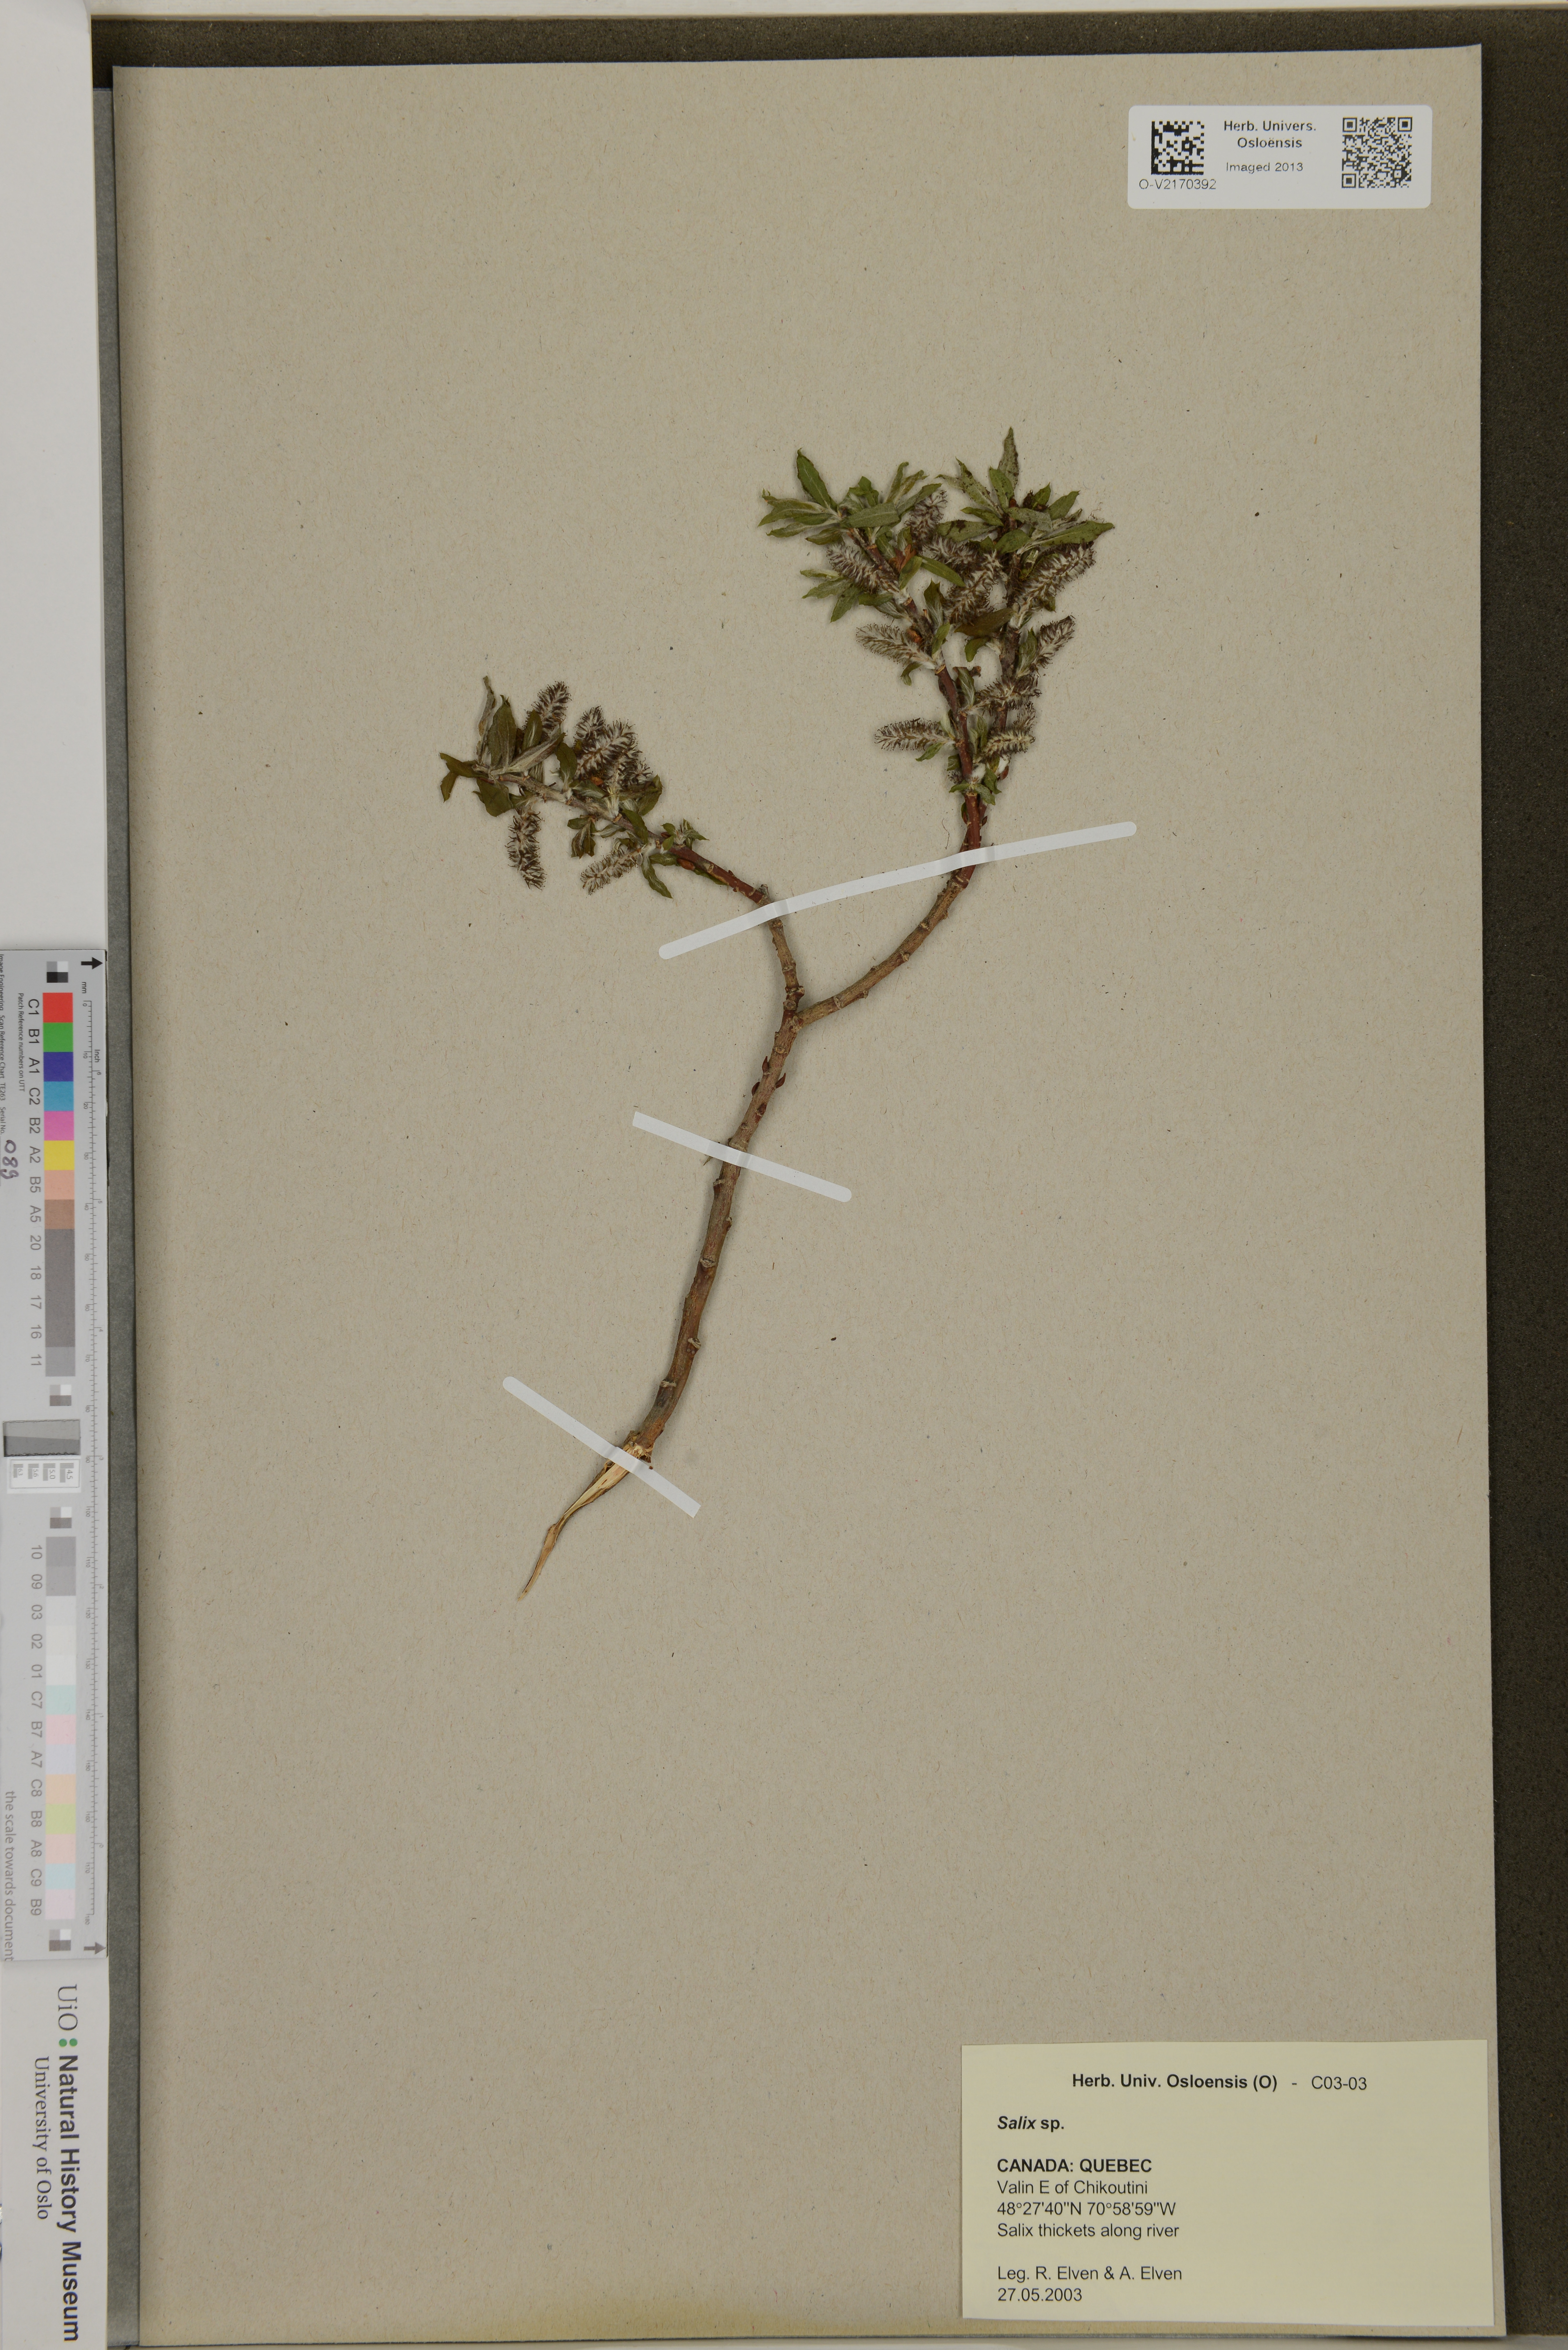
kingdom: Plantae
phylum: Tracheophyta
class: Magnoliopsida
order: Malpighiales
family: Salicaceae
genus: Salix
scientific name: Salix
